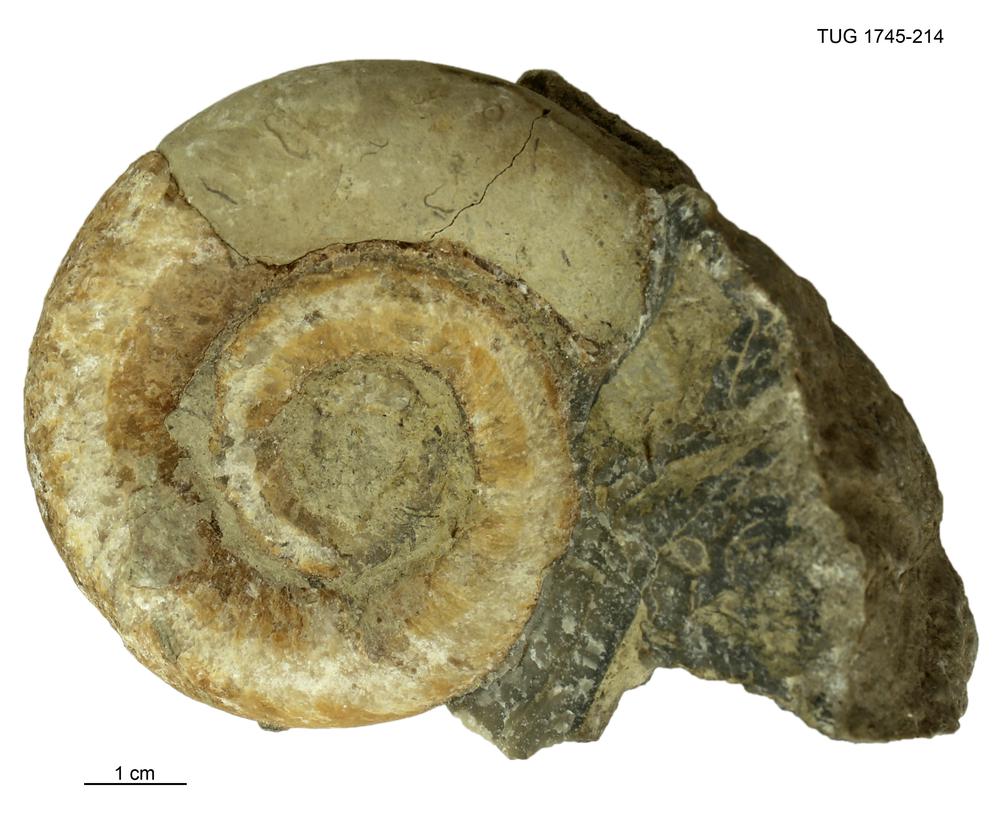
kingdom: Animalia
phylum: Mollusca
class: Cephalopoda
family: Trocholitidae
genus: Schroederoceras
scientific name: Schroederoceras
